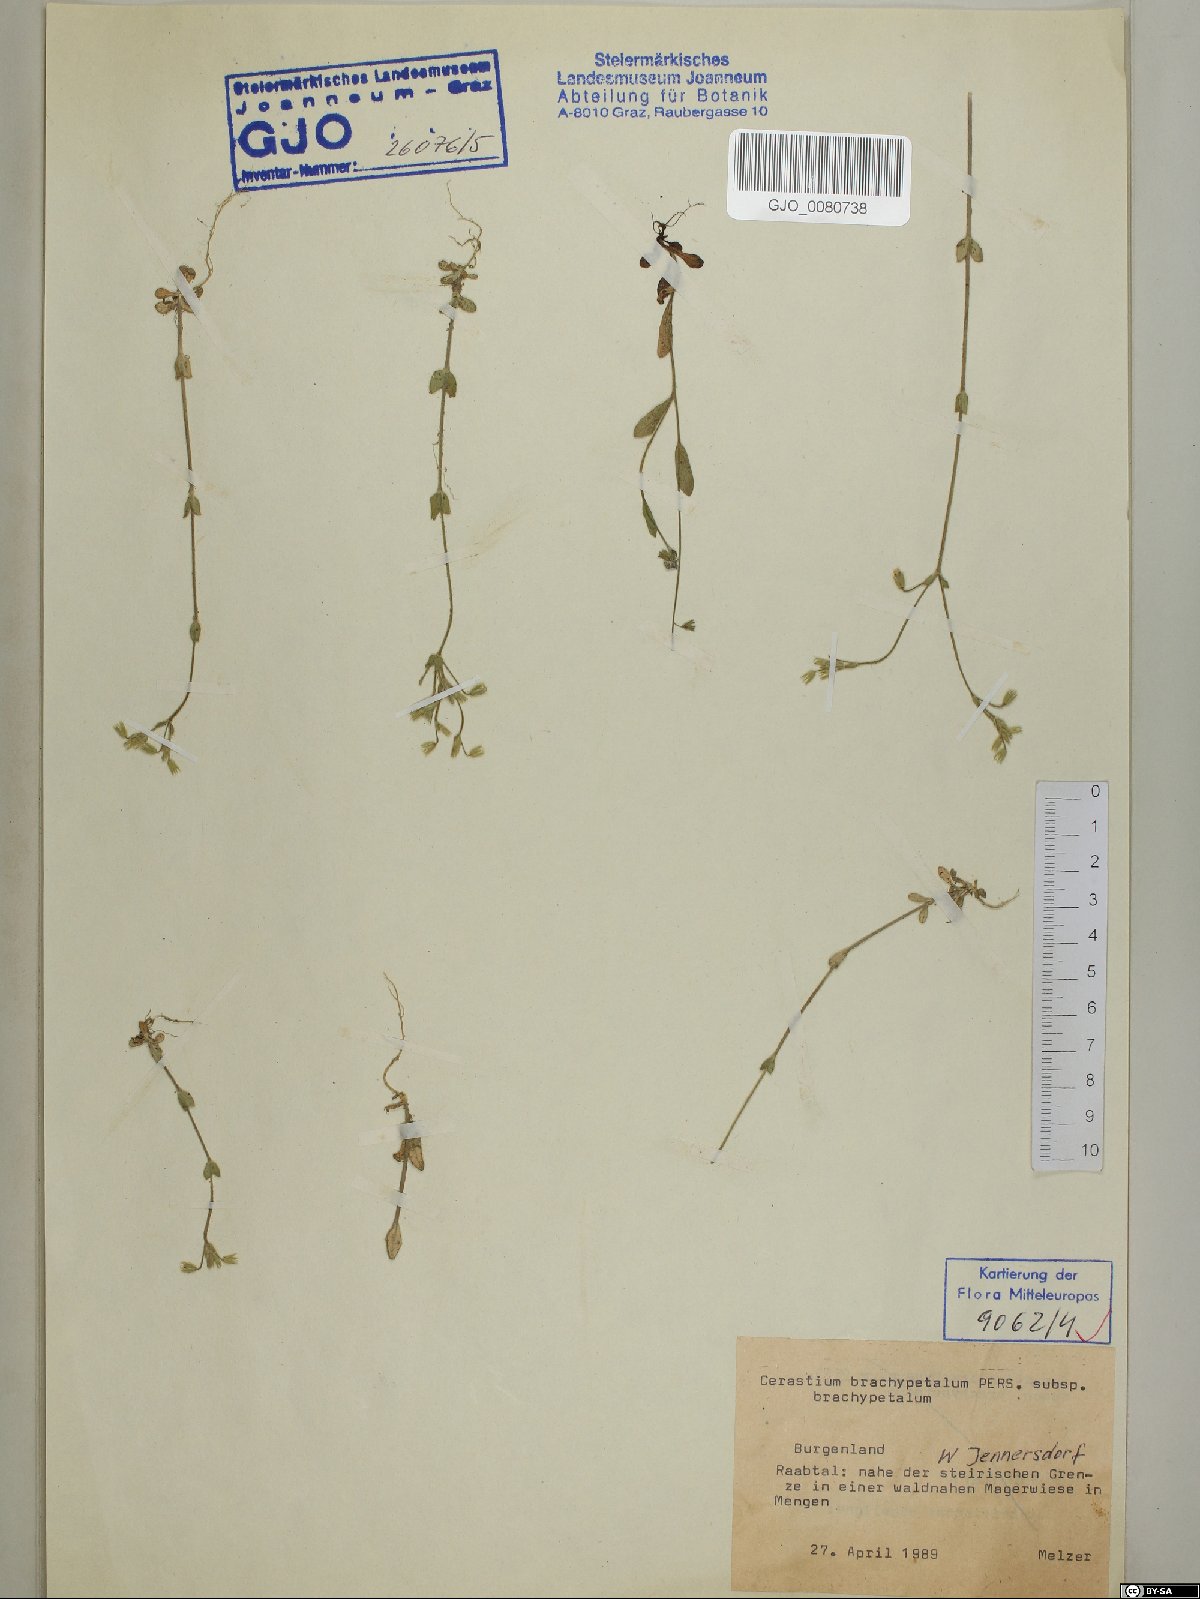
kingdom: Plantae
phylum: Tracheophyta
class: Magnoliopsida
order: Caryophyllales
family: Caryophyllaceae
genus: Cerastium
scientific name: Cerastium brachypetalum
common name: Grey mouse-ear
